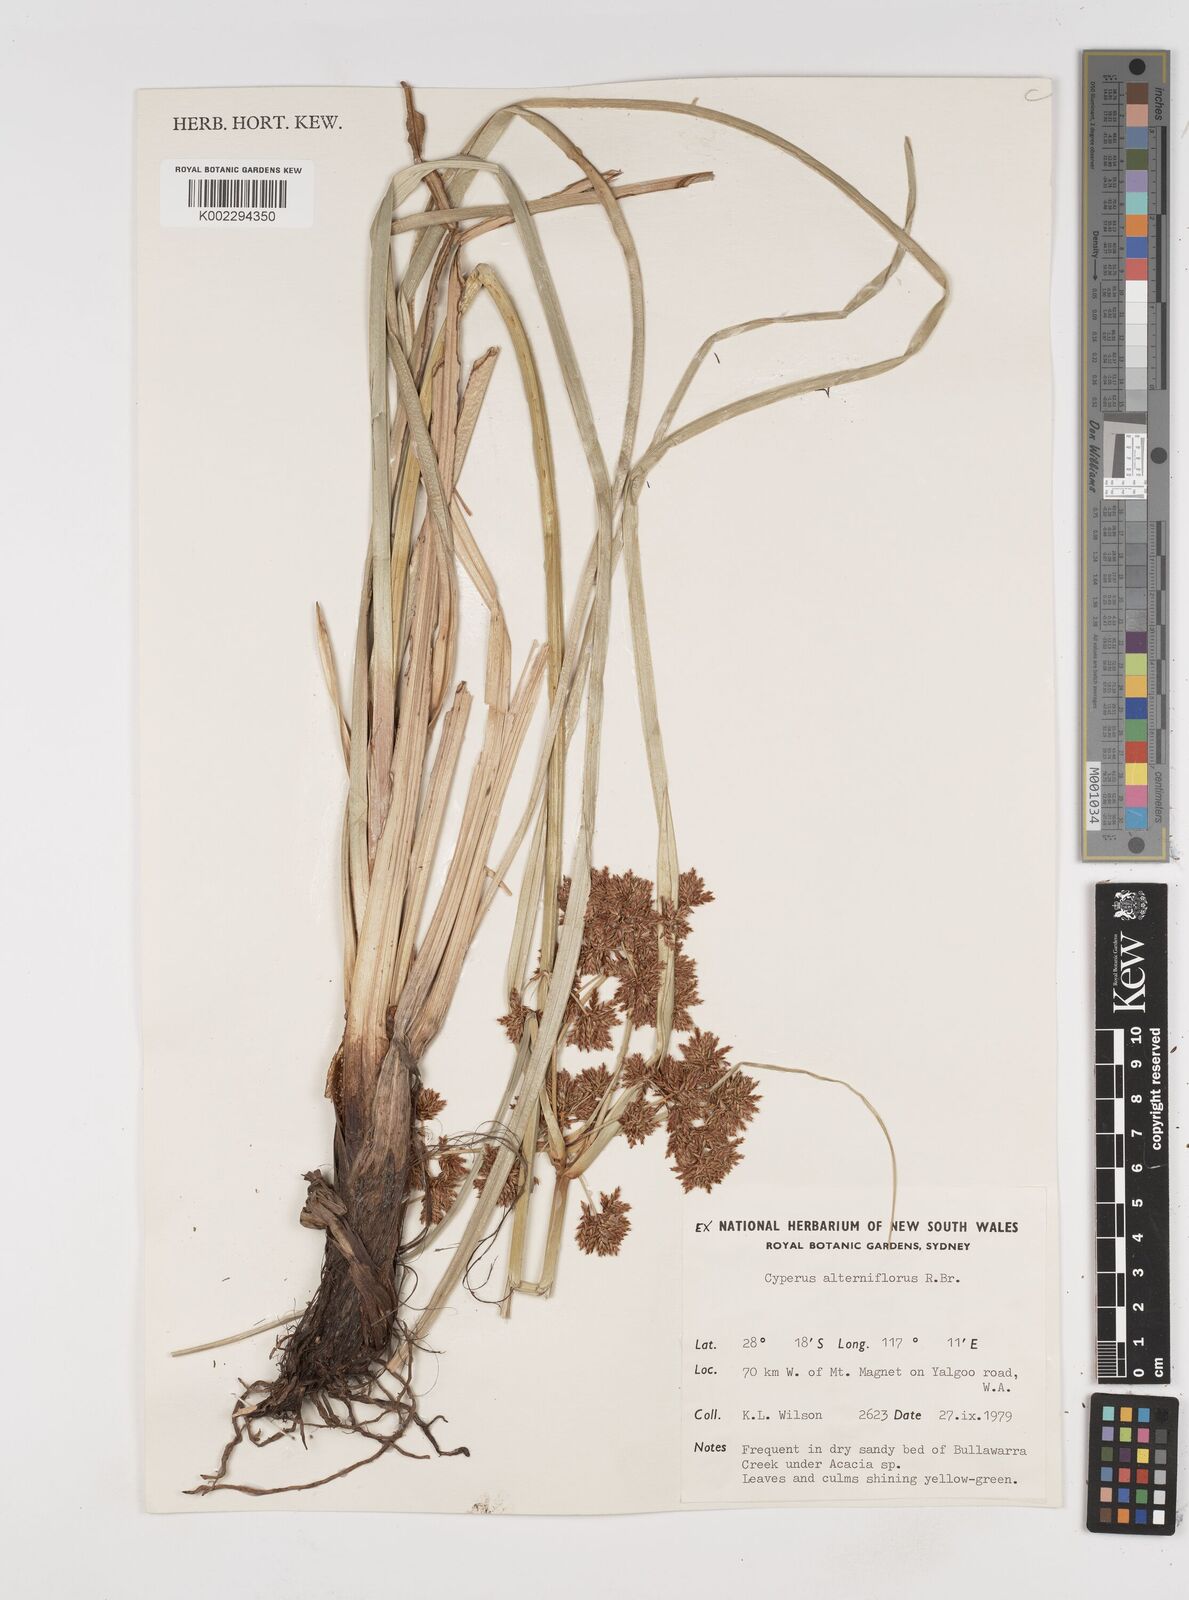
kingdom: Plantae
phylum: Tracheophyta
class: Liliopsida
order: Poales
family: Cyperaceae
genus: Cyperus
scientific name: Cyperus alterniflorus
